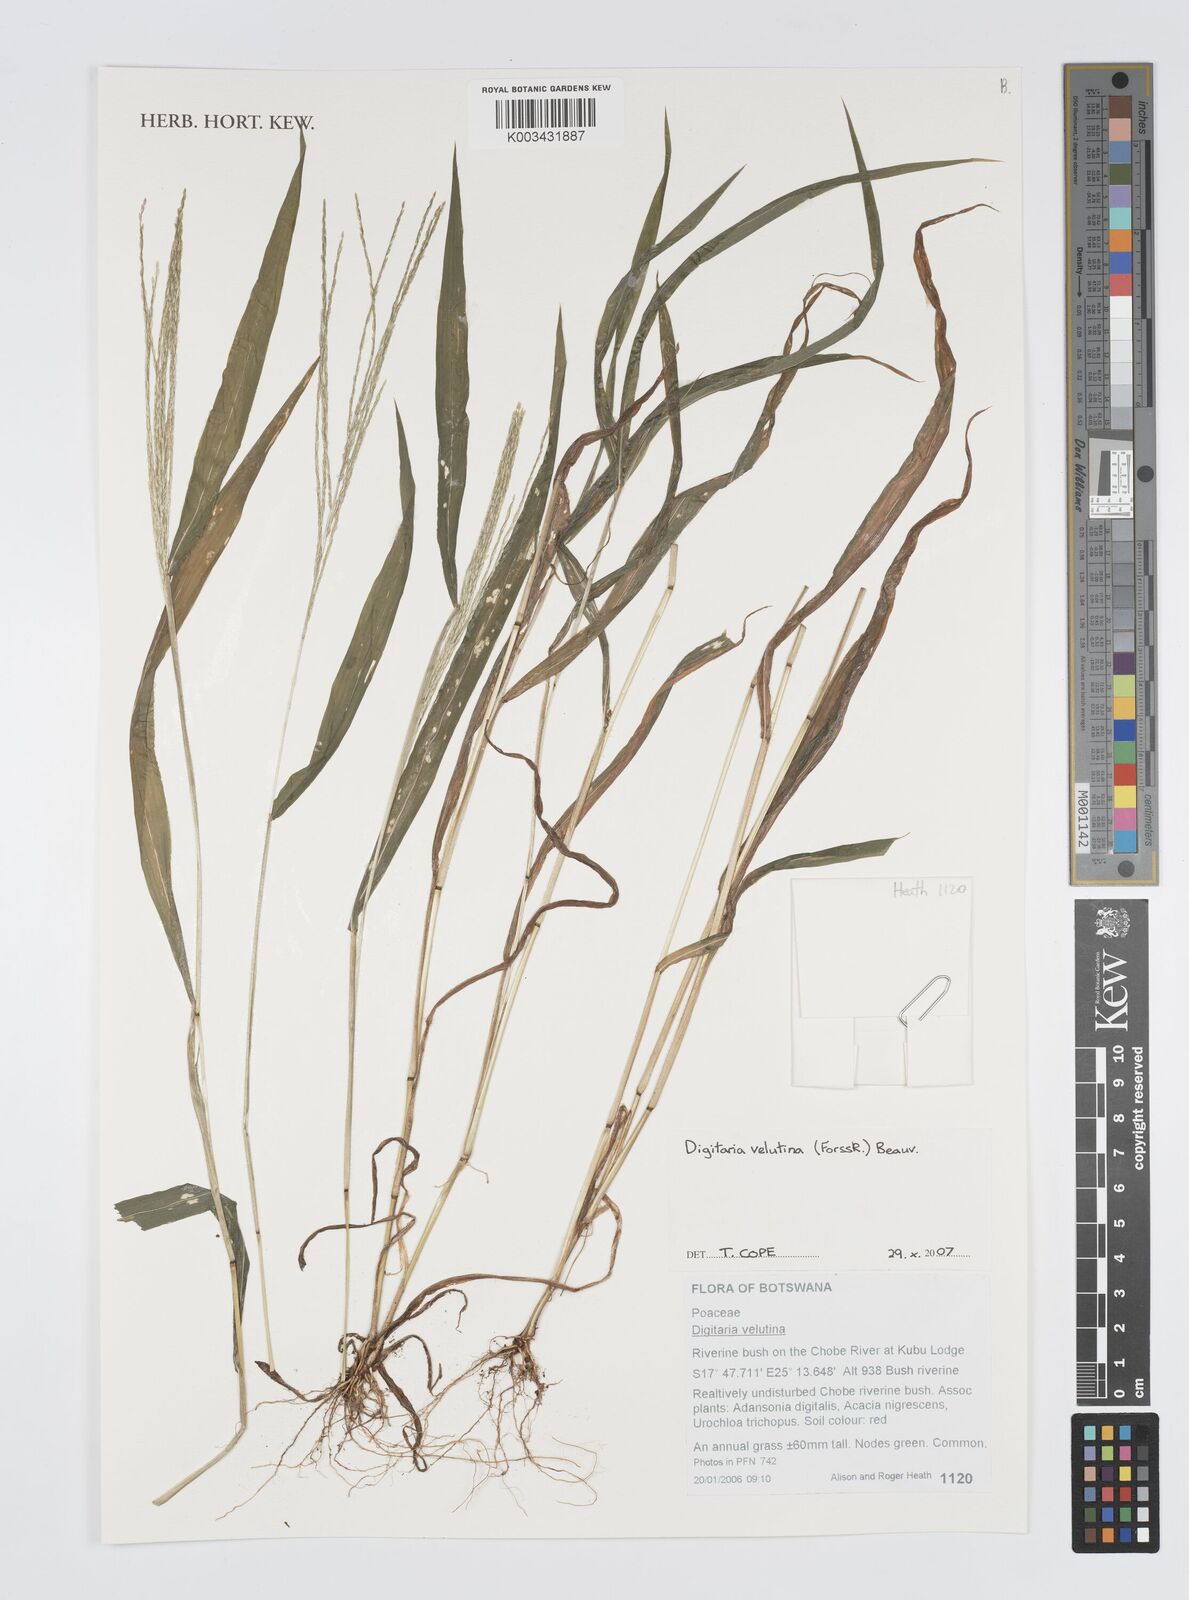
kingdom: Plantae
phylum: Tracheophyta
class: Liliopsida
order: Poales
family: Poaceae
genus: Digitaria
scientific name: Digitaria velutina
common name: Long-plume finger grass
